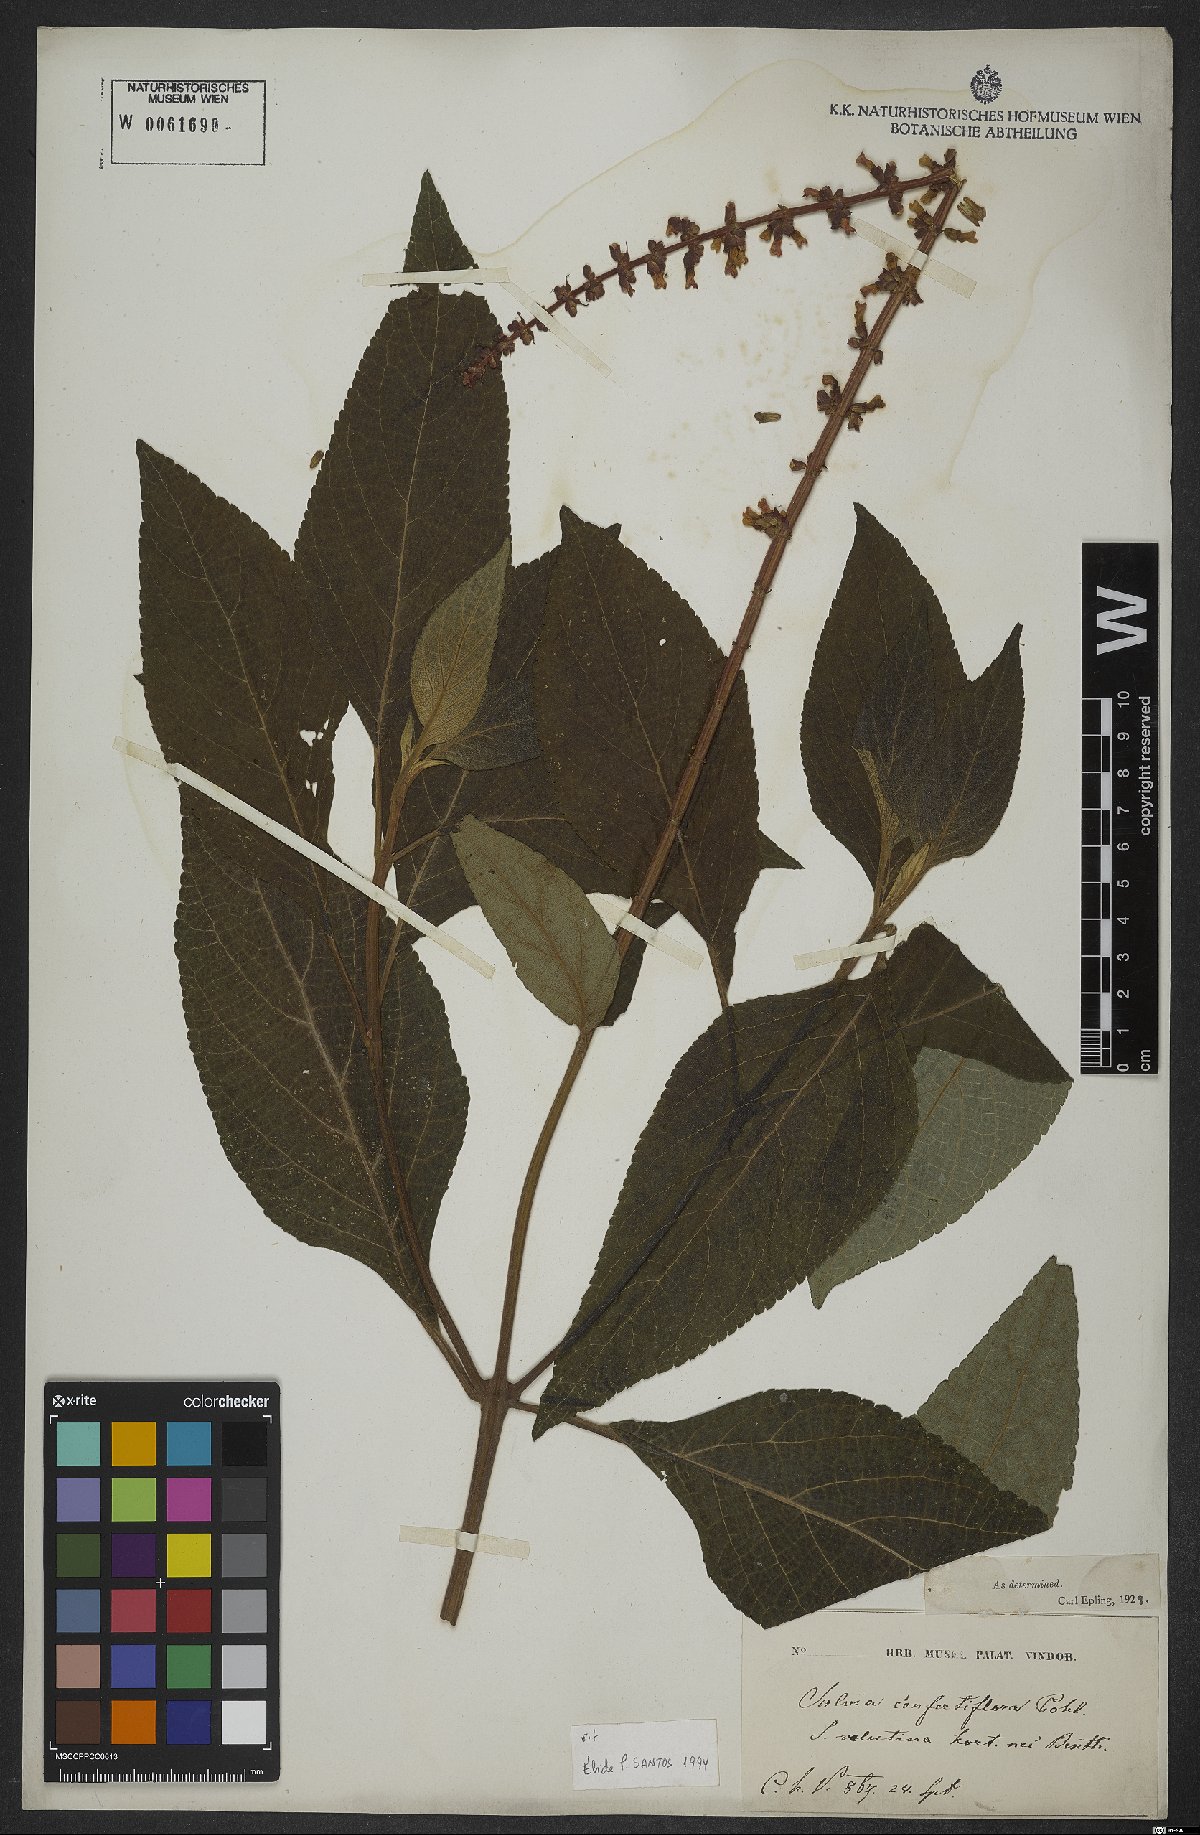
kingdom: Plantae
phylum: Tracheophyta
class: Magnoliopsida
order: Lamiales
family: Lamiaceae
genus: Salvia
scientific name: Salvia confertiflora
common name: Sabra-spike sage
